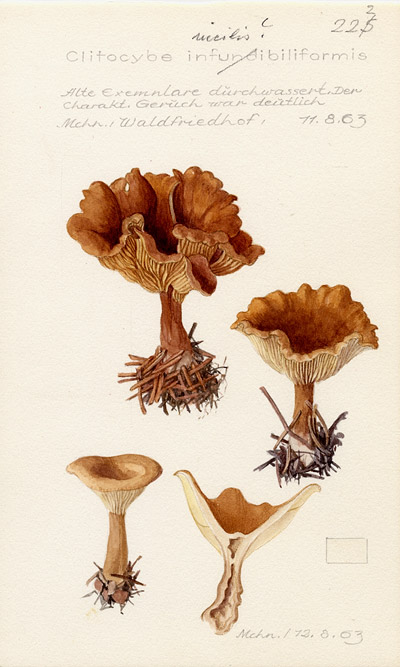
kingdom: Fungi
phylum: Basidiomycota
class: Agaricomycetes
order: Agaricales
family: Tricholomataceae
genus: Clitocybe
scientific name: Clitocybe incilis
